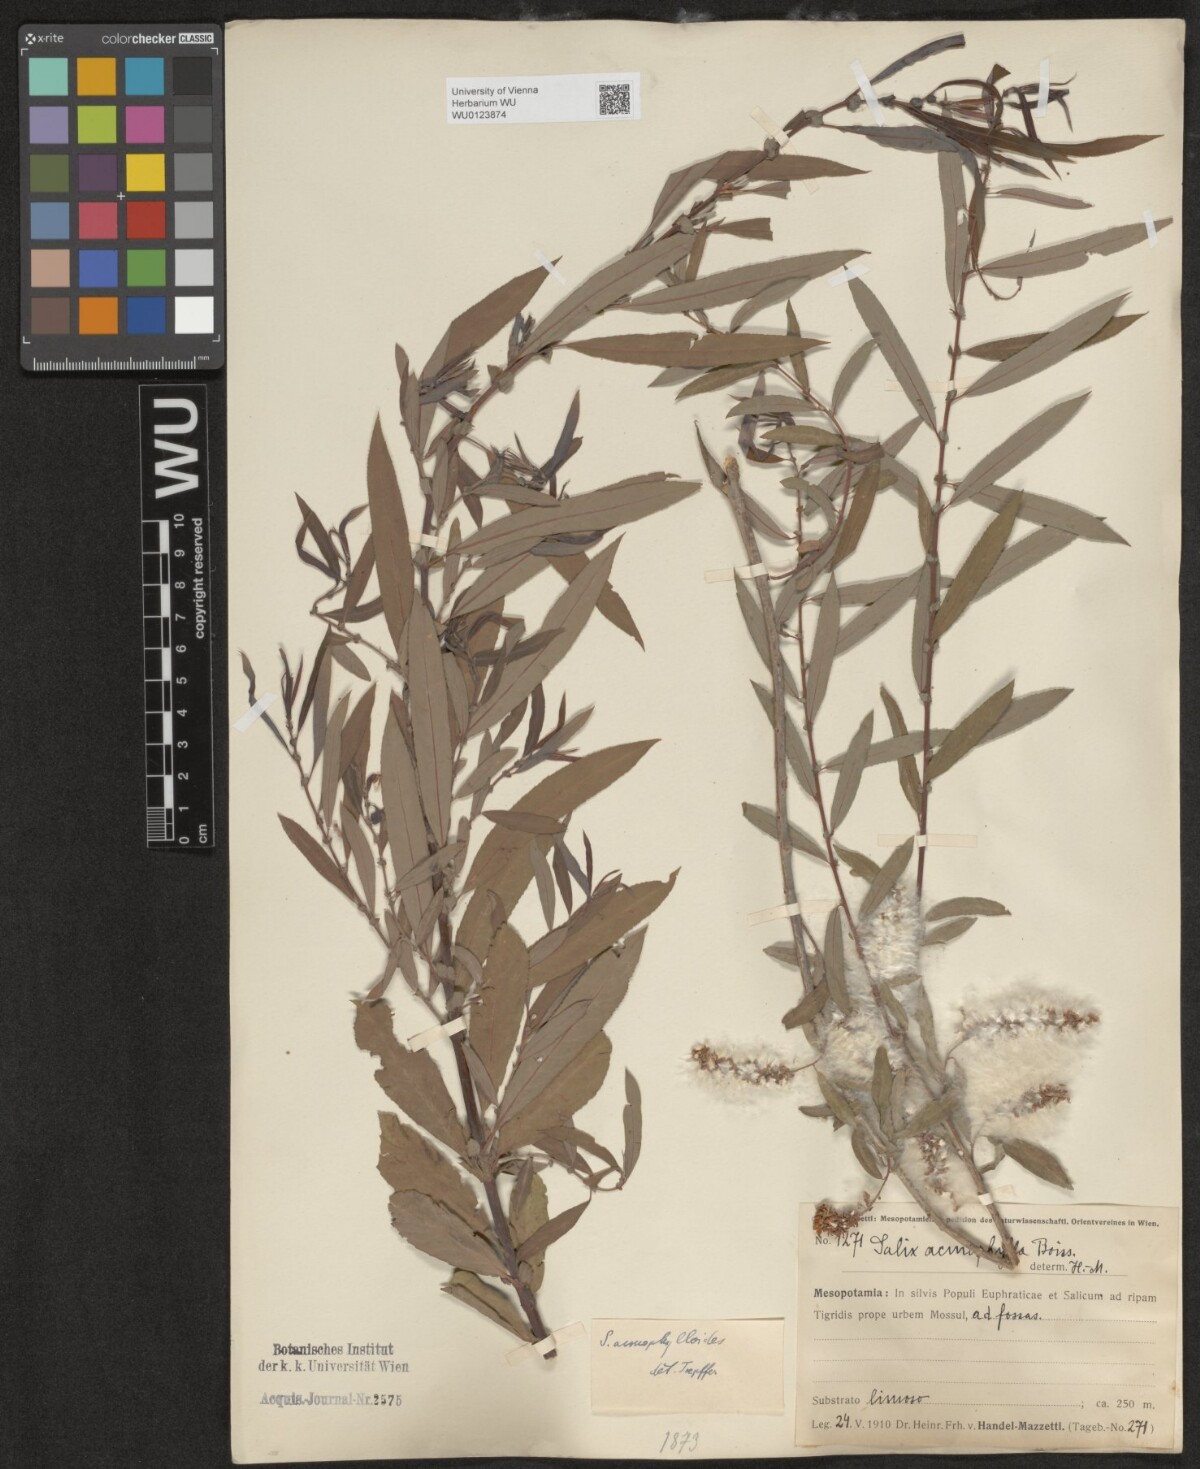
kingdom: Plantae
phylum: Tracheophyta
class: Magnoliopsida
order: Malpighiales
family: Salicaceae
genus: Salix
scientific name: Salix
